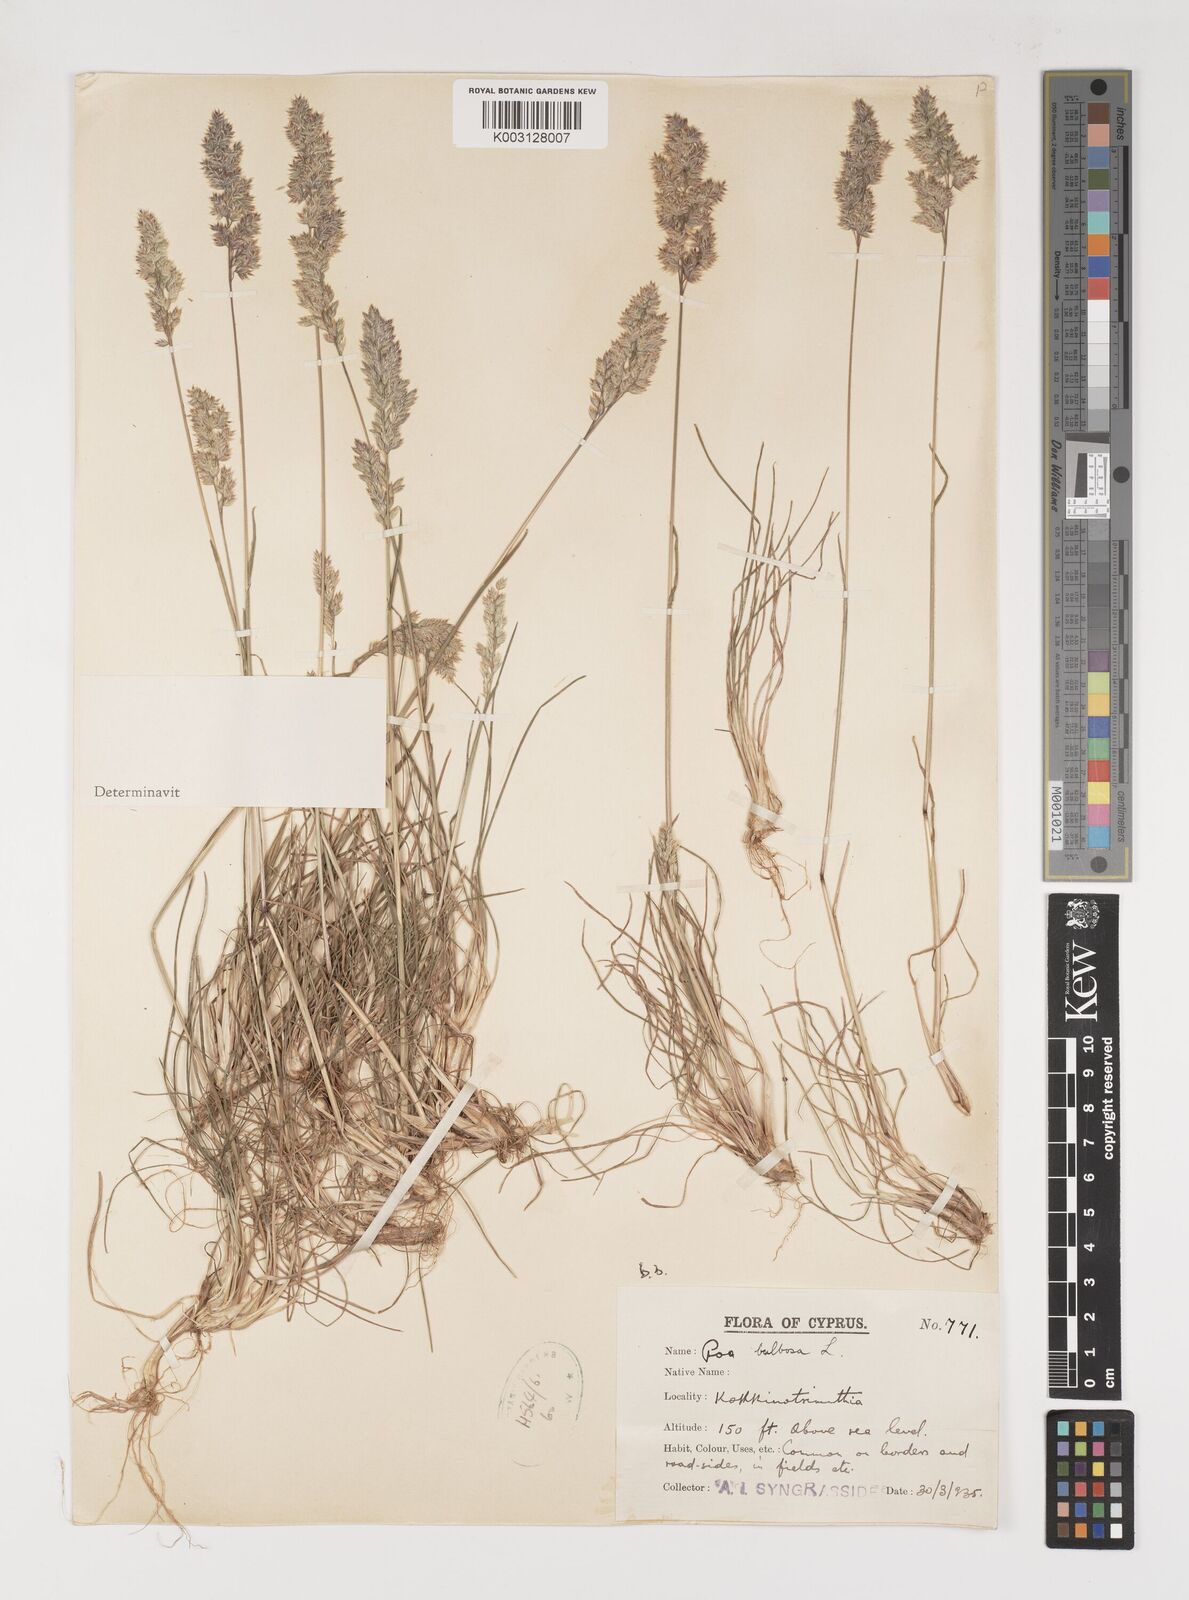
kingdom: Plantae
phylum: Tracheophyta
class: Liliopsida
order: Poales
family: Poaceae
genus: Poa
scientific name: Poa bulbosa
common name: Bulbous bluegrass
